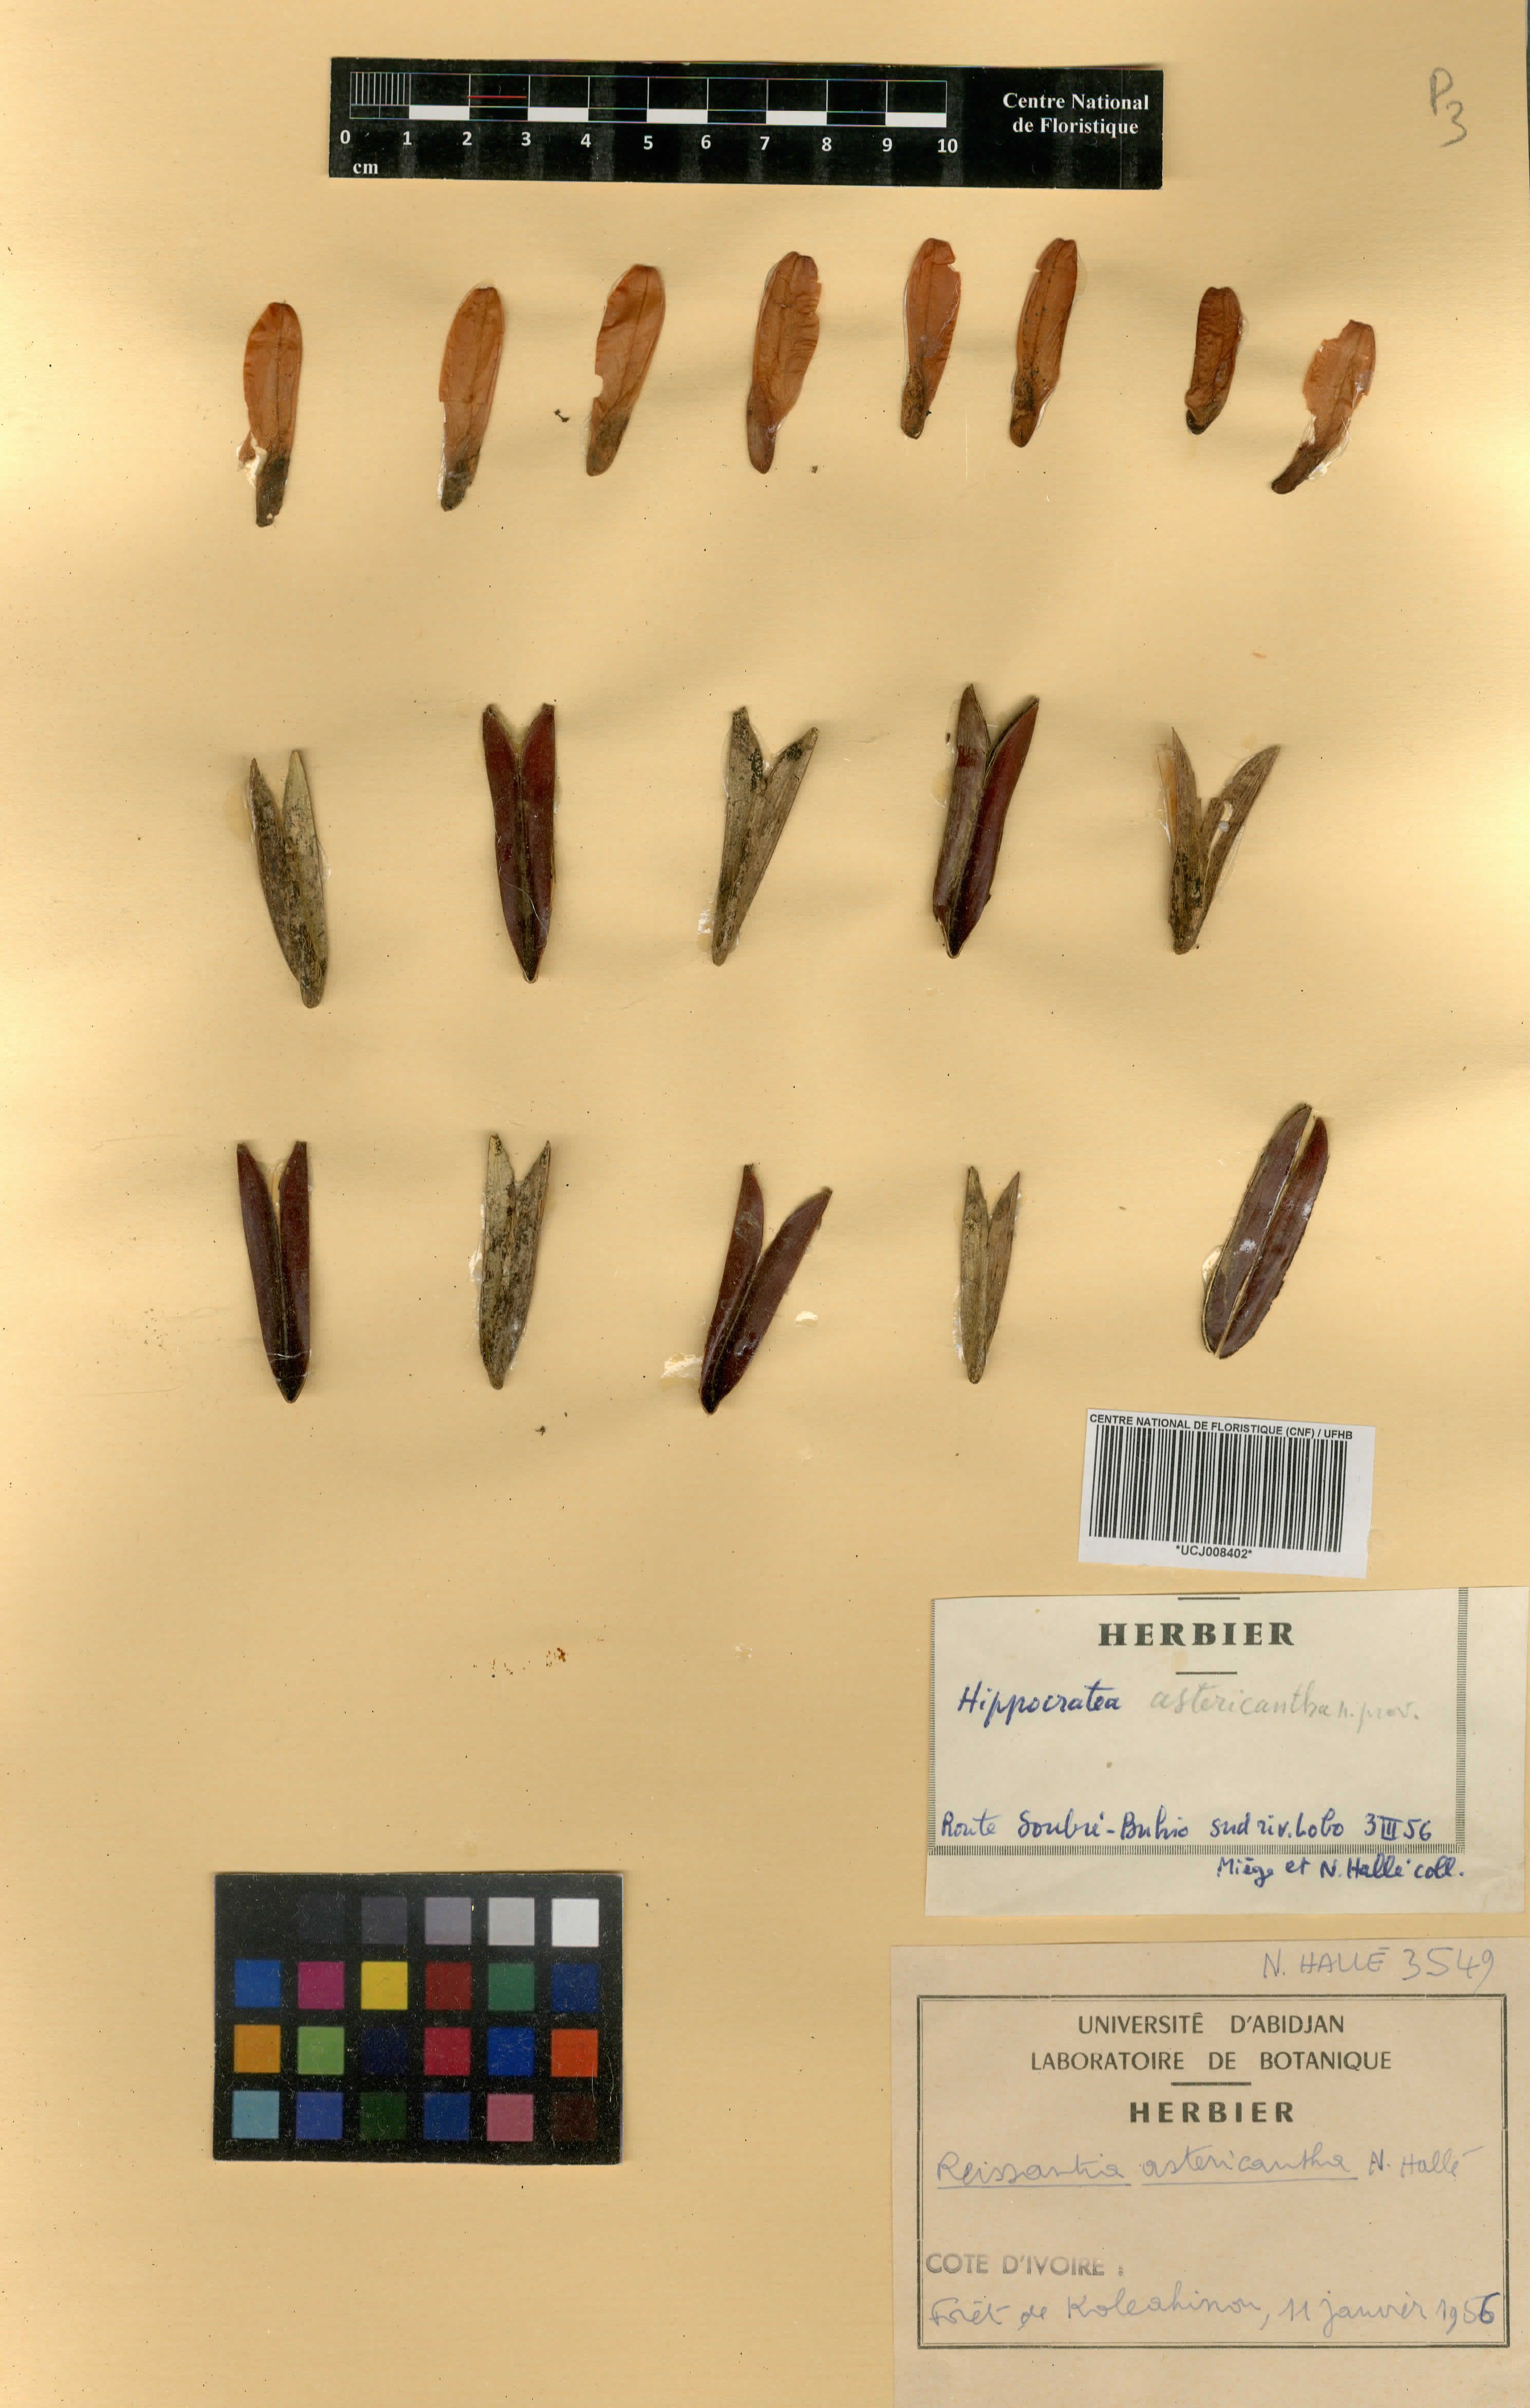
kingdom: Plantae
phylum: Tracheophyta
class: Magnoliopsida
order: Celastrales
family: Celastraceae
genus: Reissantia
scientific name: Reissantia indica
